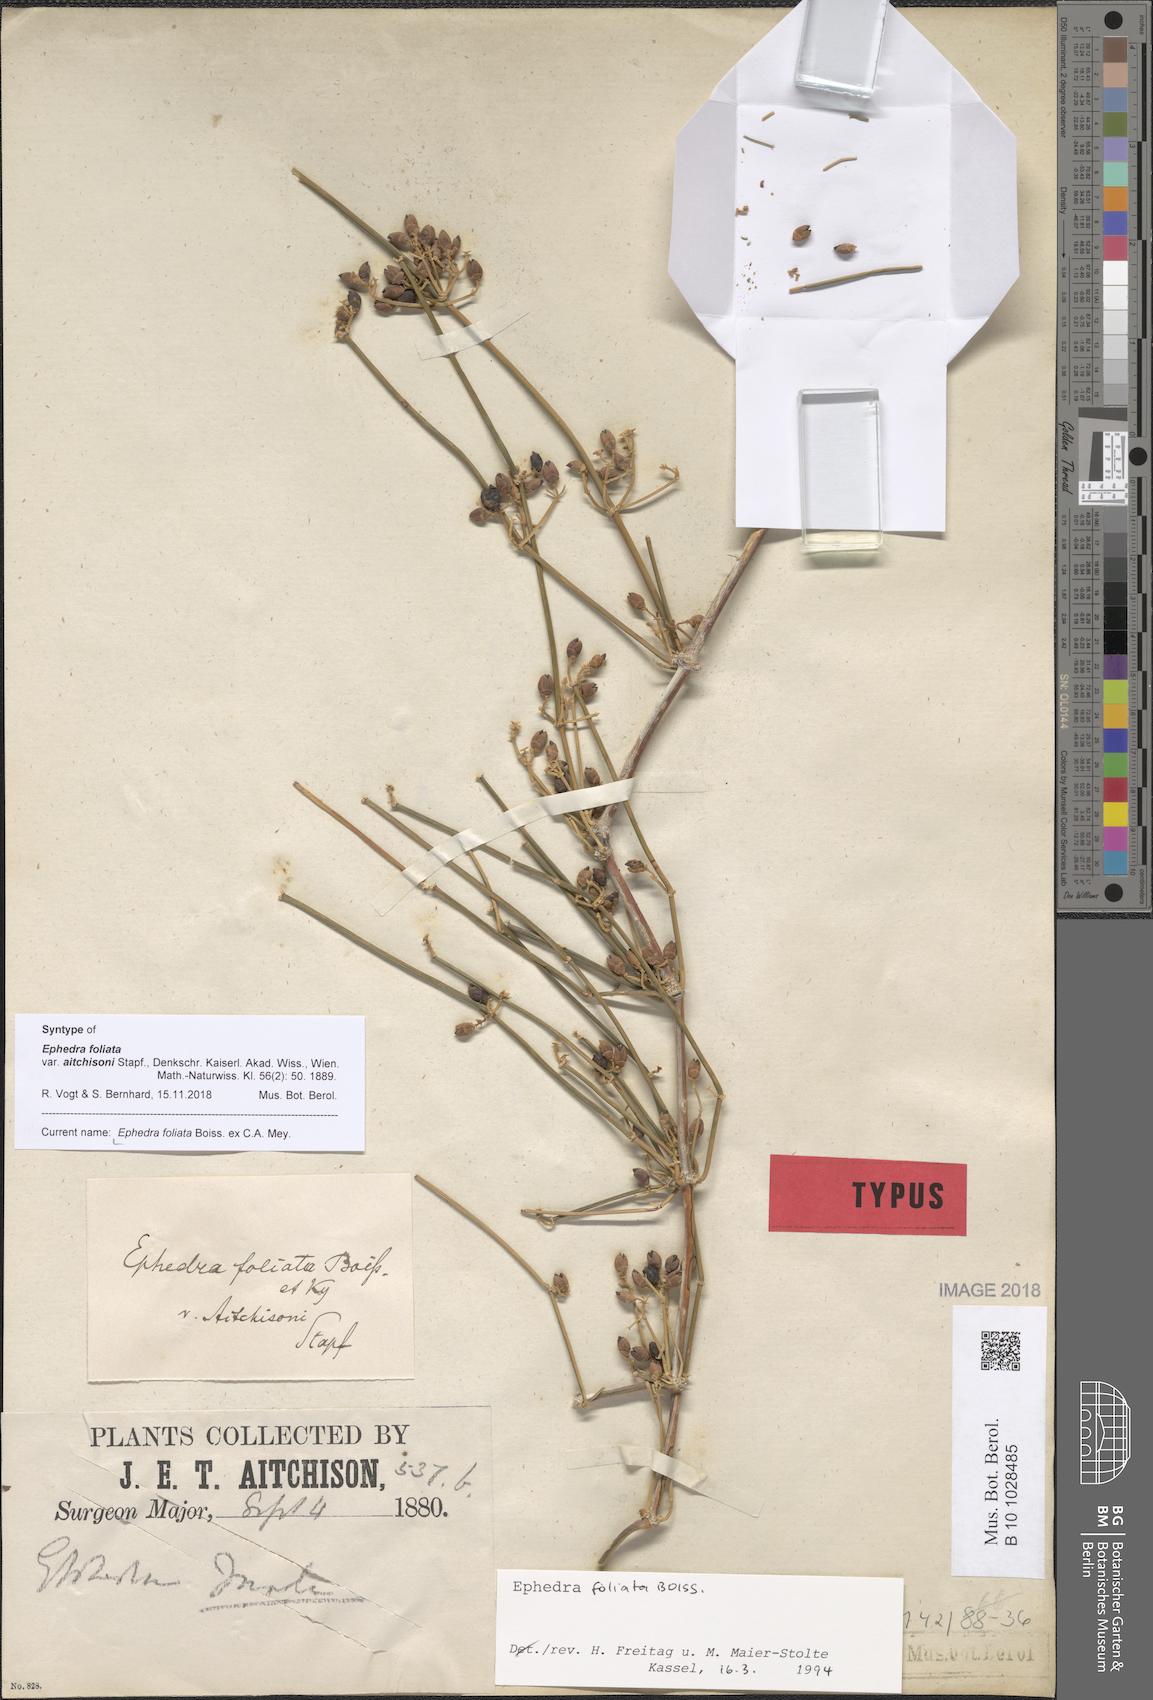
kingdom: Plantae
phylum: Tracheophyta
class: Gnetopsida
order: Ephedrales
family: Ephedraceae
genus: Ephedra
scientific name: Ephedra ciliata
